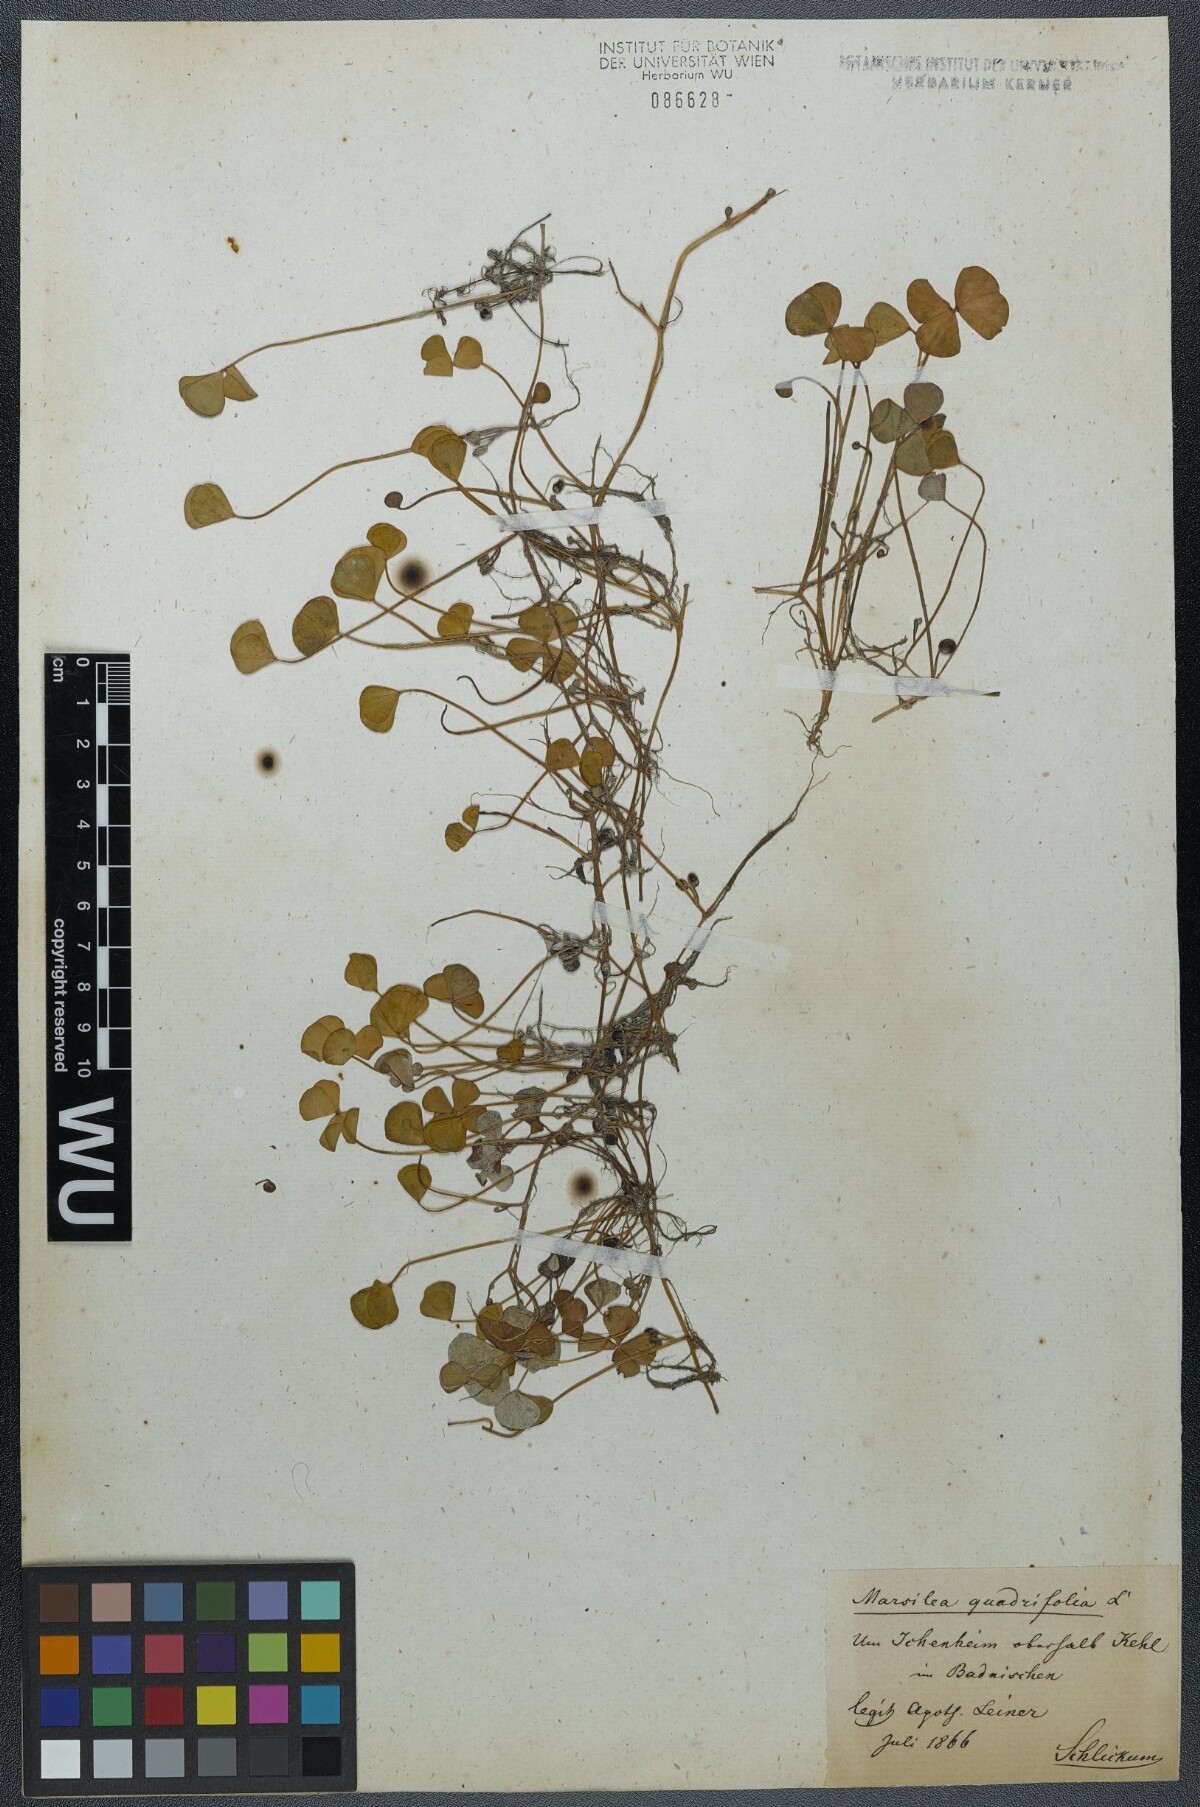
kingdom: Plantae
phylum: Tracheophyta
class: Polypodiopsida
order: Salviniales
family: Marsileaceae
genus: Marsilea
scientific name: Marsilea quadrifolia
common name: Water shamrock
